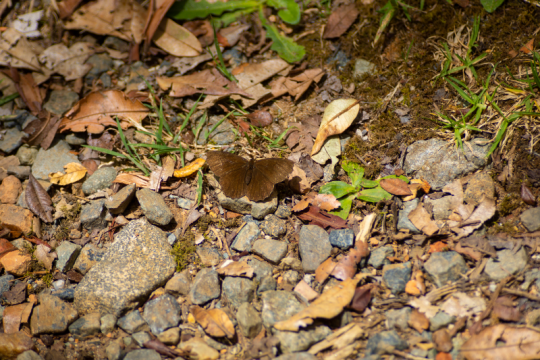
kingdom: Animalia
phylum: Arthropoda
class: Insecta
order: Lepidoptera
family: Nymphalidae
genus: Panyapedaliodes
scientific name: Panyapedaliodes drymaea
